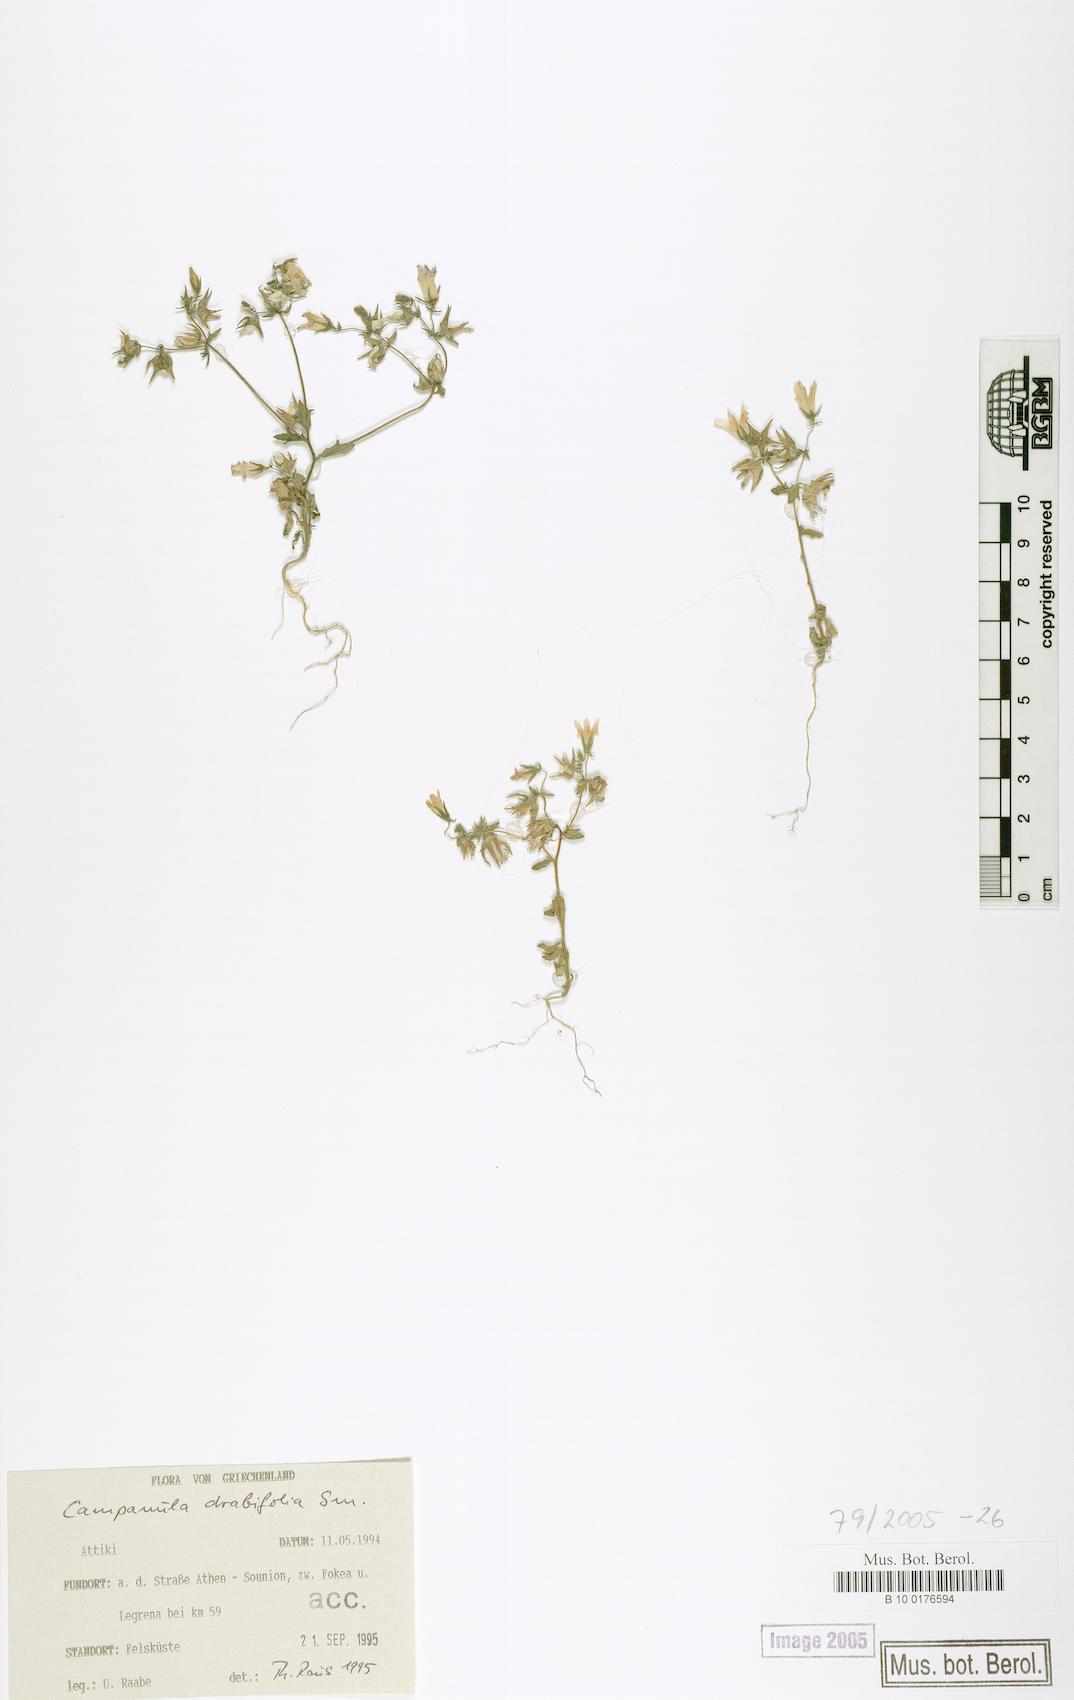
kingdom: Plantae
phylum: Tracheophyta
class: Magnoliopsida
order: Asterales
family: Campanulaceae
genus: Campanula
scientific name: Campanula drabifolia
